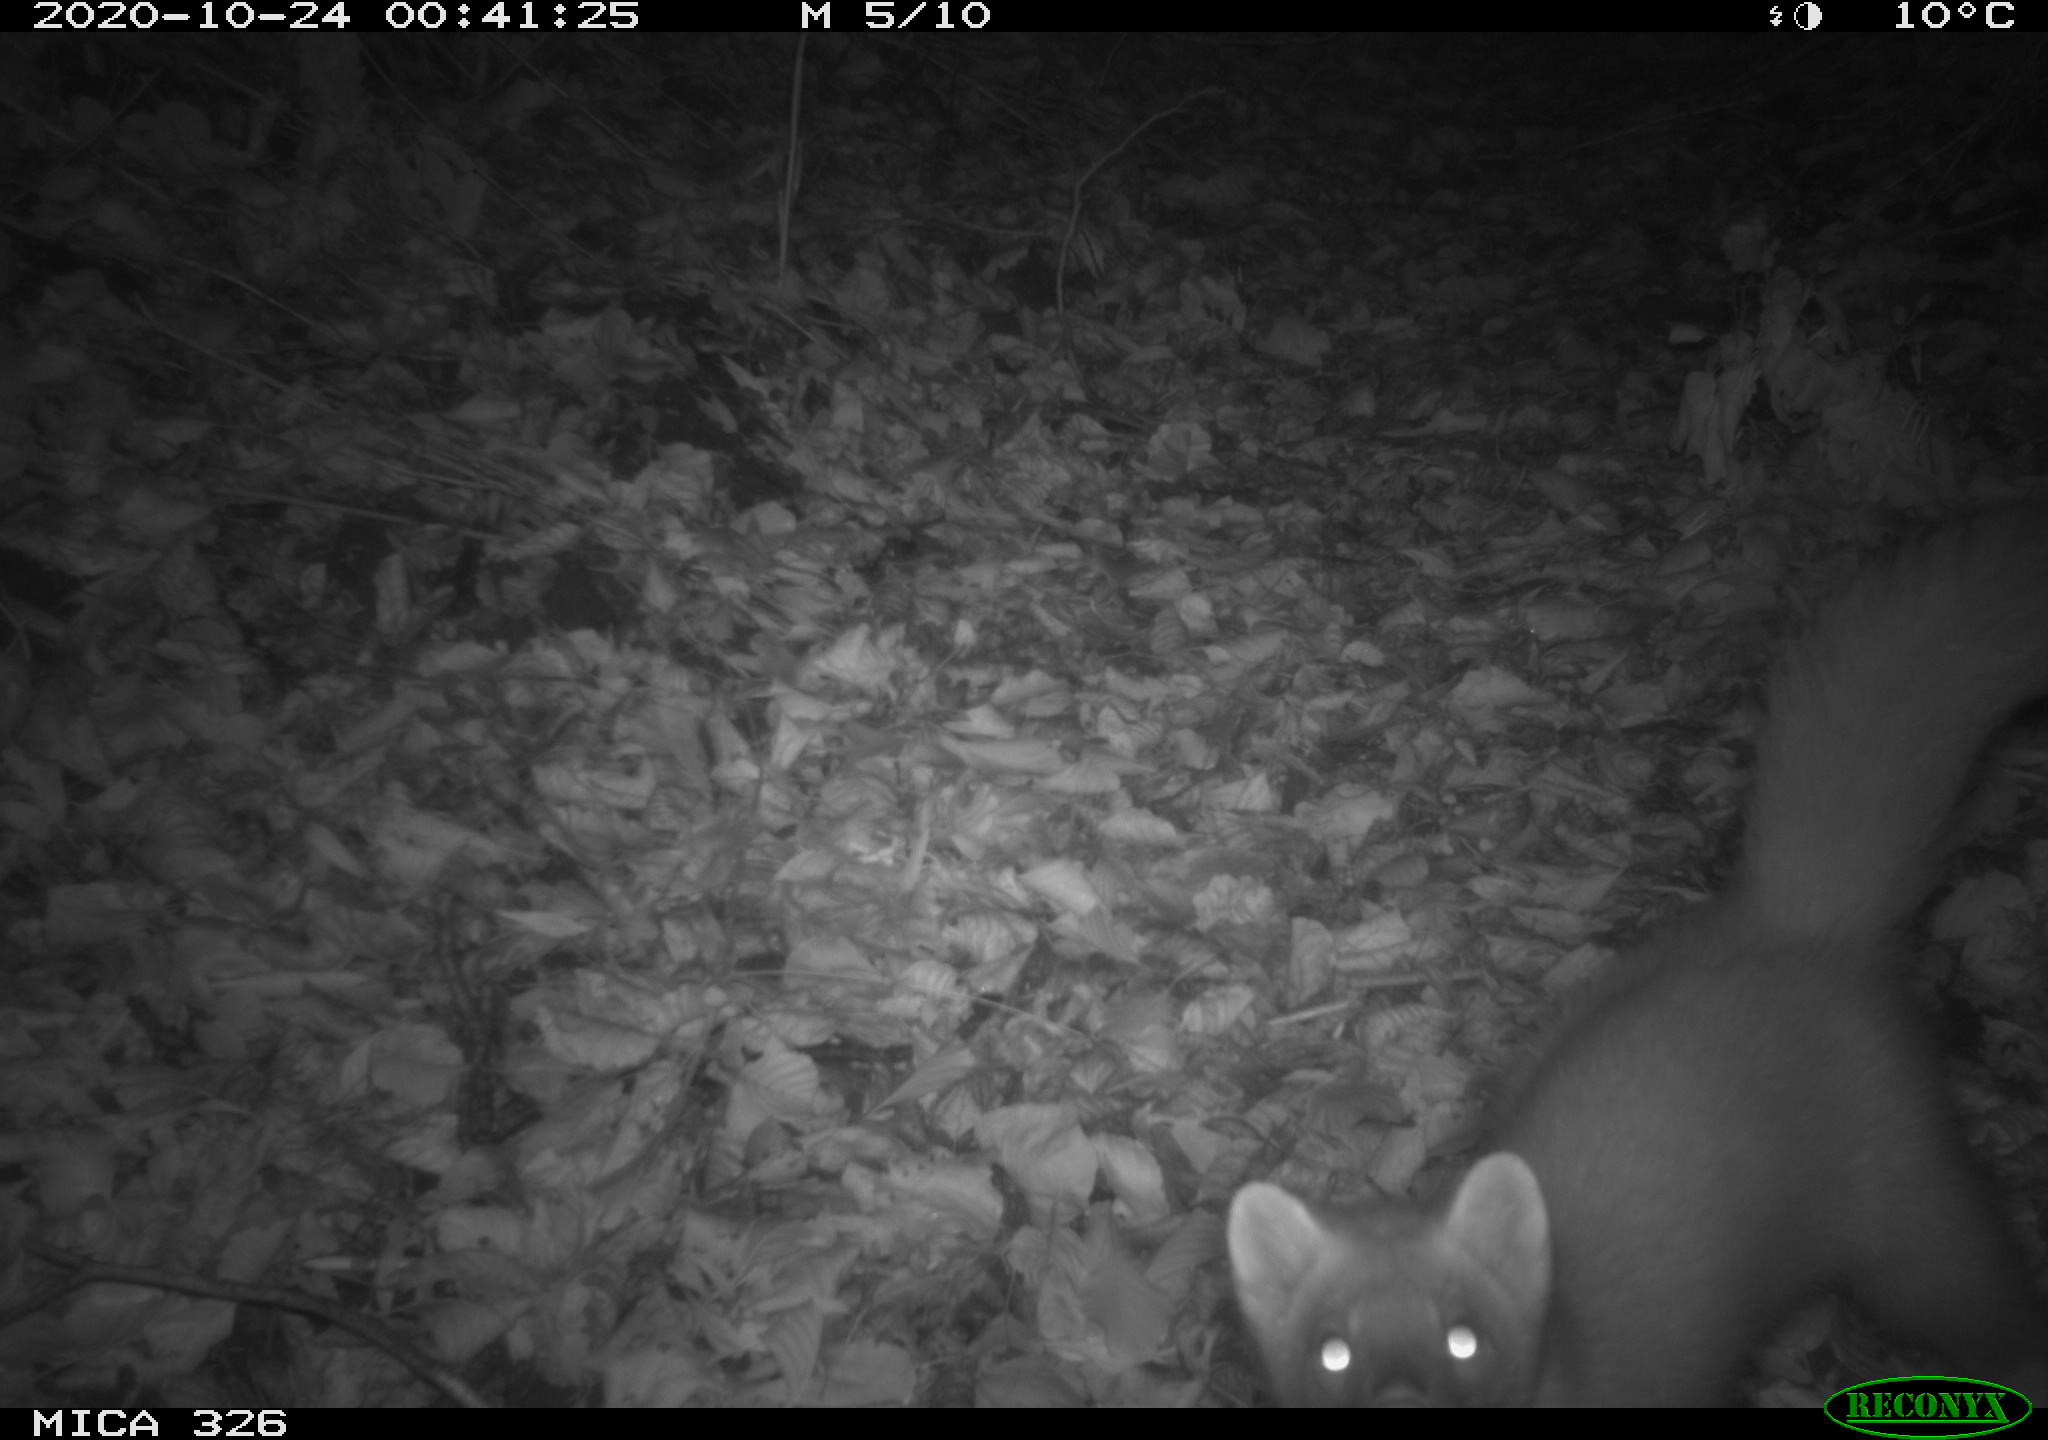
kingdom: Animalia
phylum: Chordata
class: Mammalia
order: Carnivora
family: Mustelidae
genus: Martes
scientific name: Martes foina
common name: Beech marten
